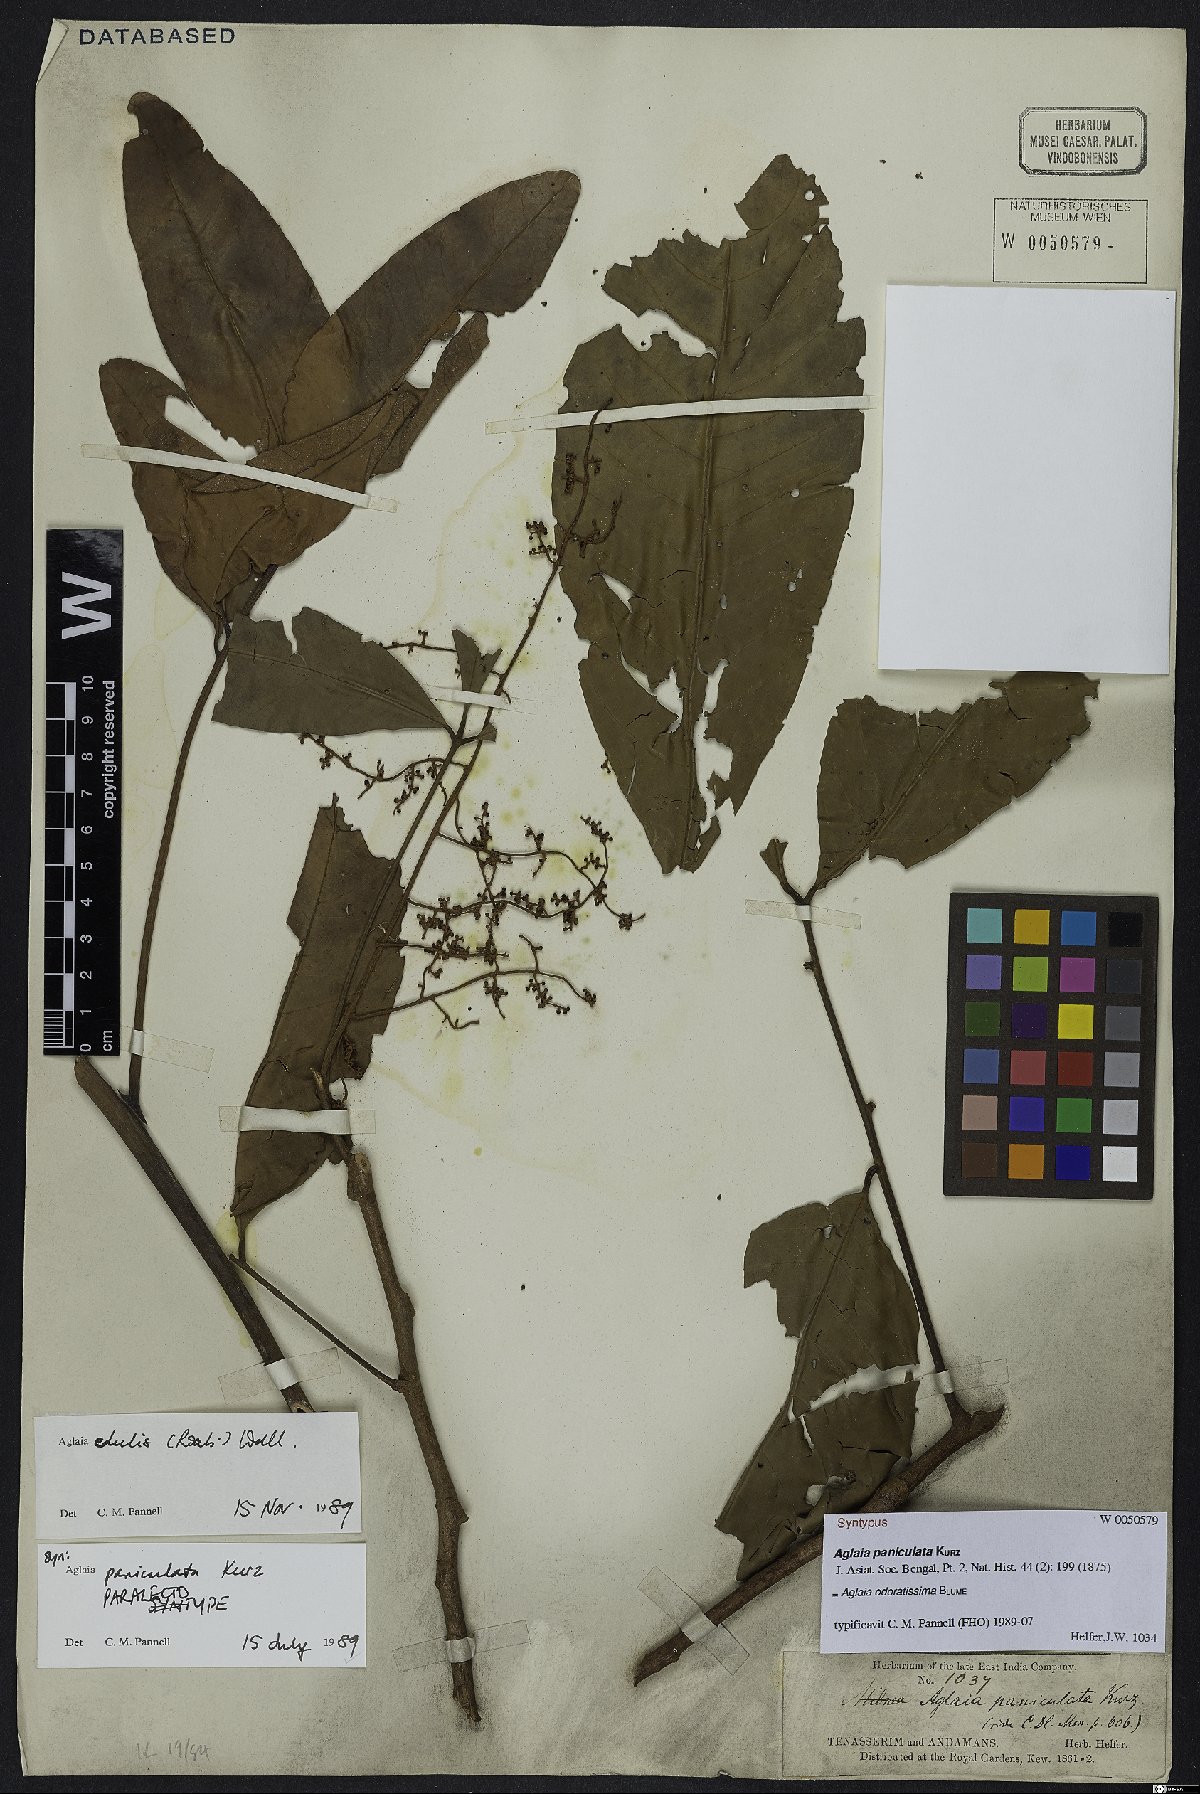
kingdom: Plantae
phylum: Tracheophyta
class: Magnoliopsida
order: Sapindales
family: Meliaceae
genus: Aglaia
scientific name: Aglaia odoratissima
